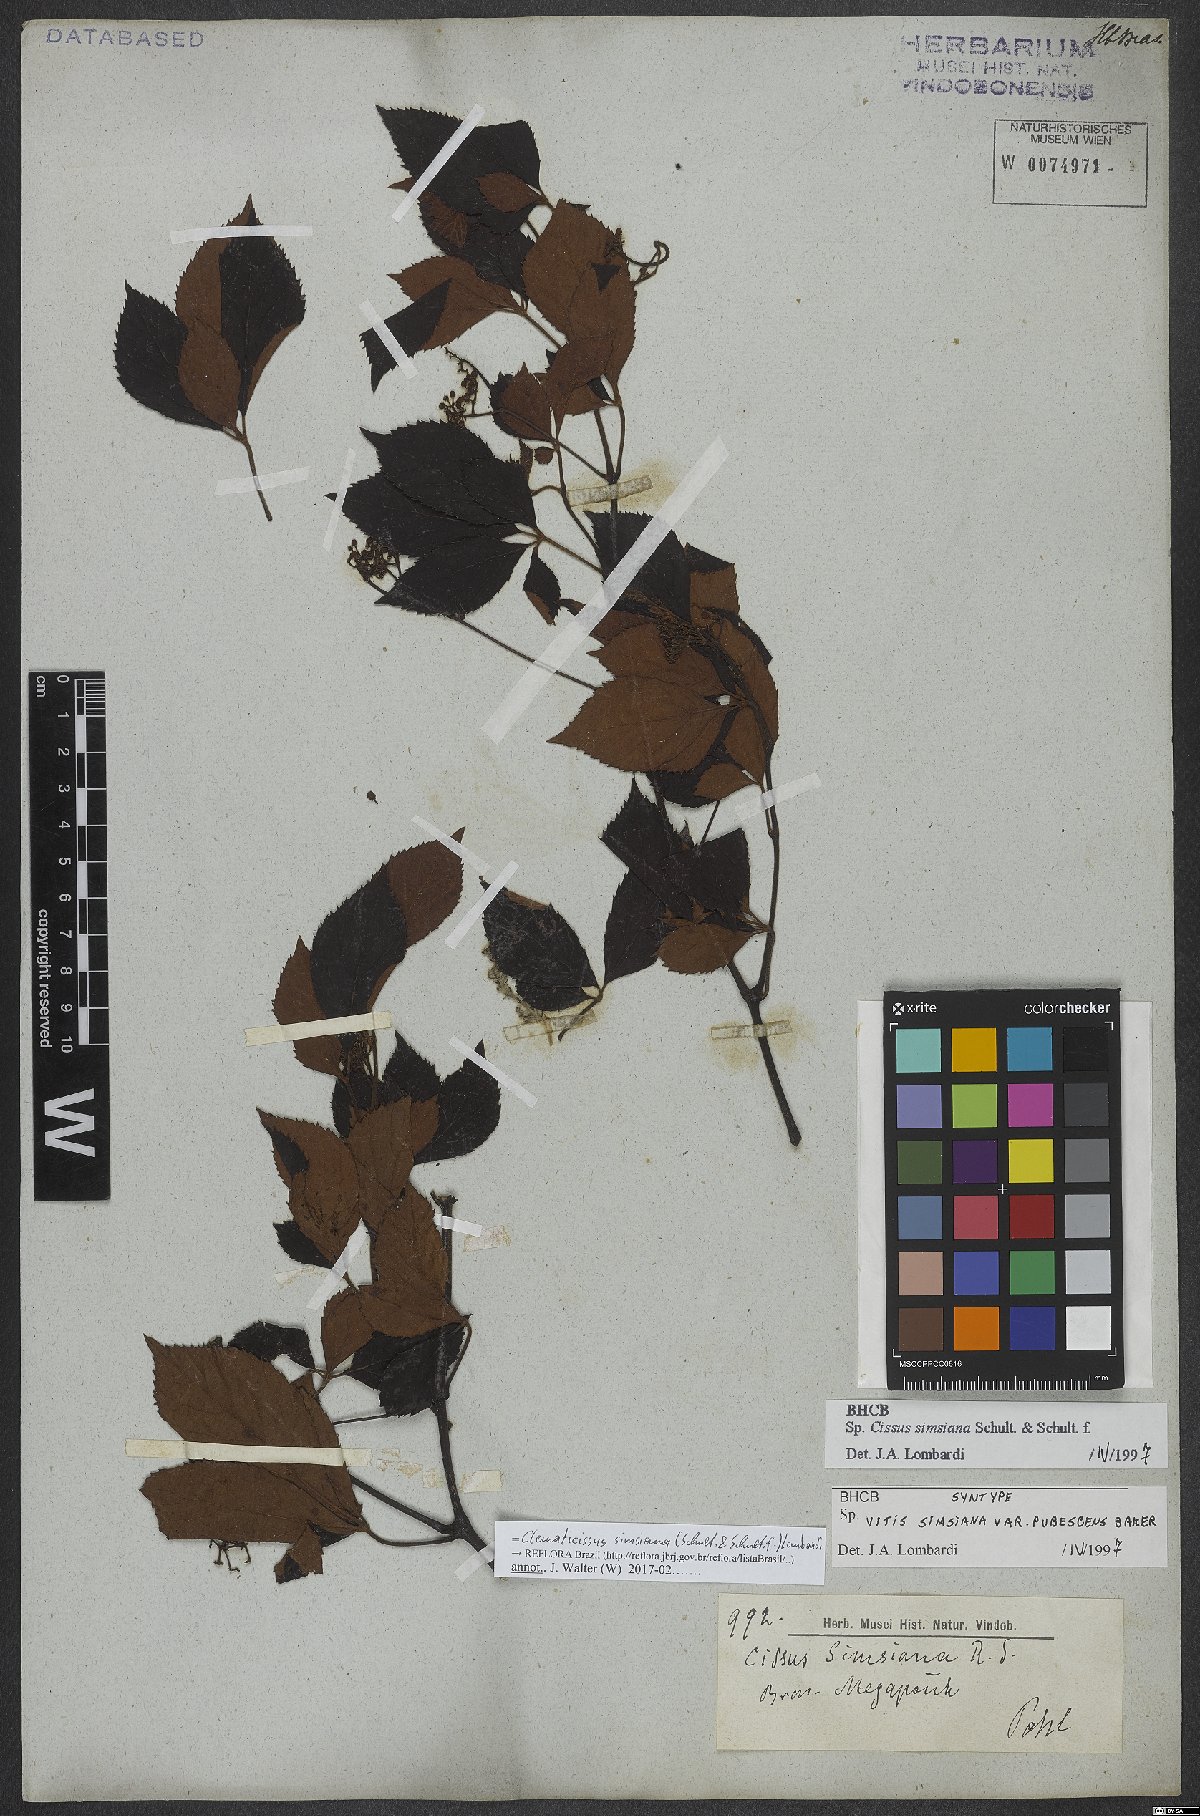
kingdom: Plantae
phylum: Tracheophyta
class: Magnoliopsida
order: Vitales
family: Vitaceae
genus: Clematicissus
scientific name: Clematicissus simsiana
